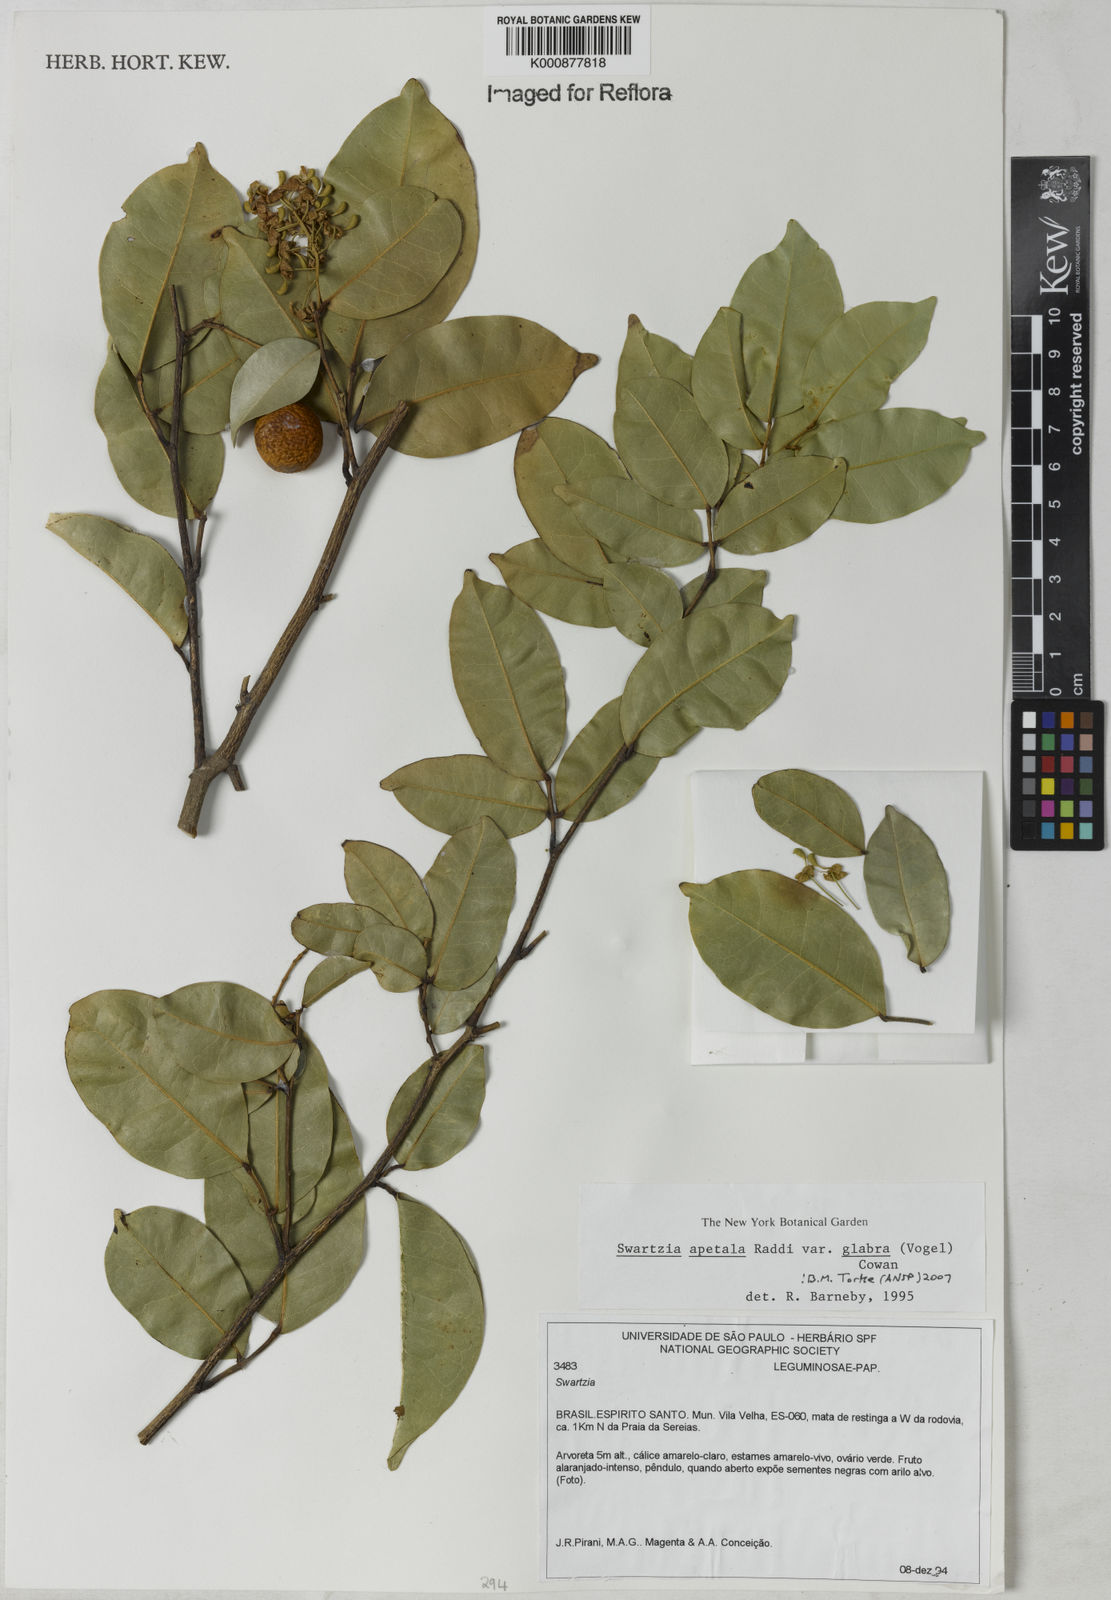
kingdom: Plantae
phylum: Tracheophyta
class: Magnoliopsida
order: Fabales
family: Fabaceae
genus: Swartzia
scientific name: Swartzia apetala
